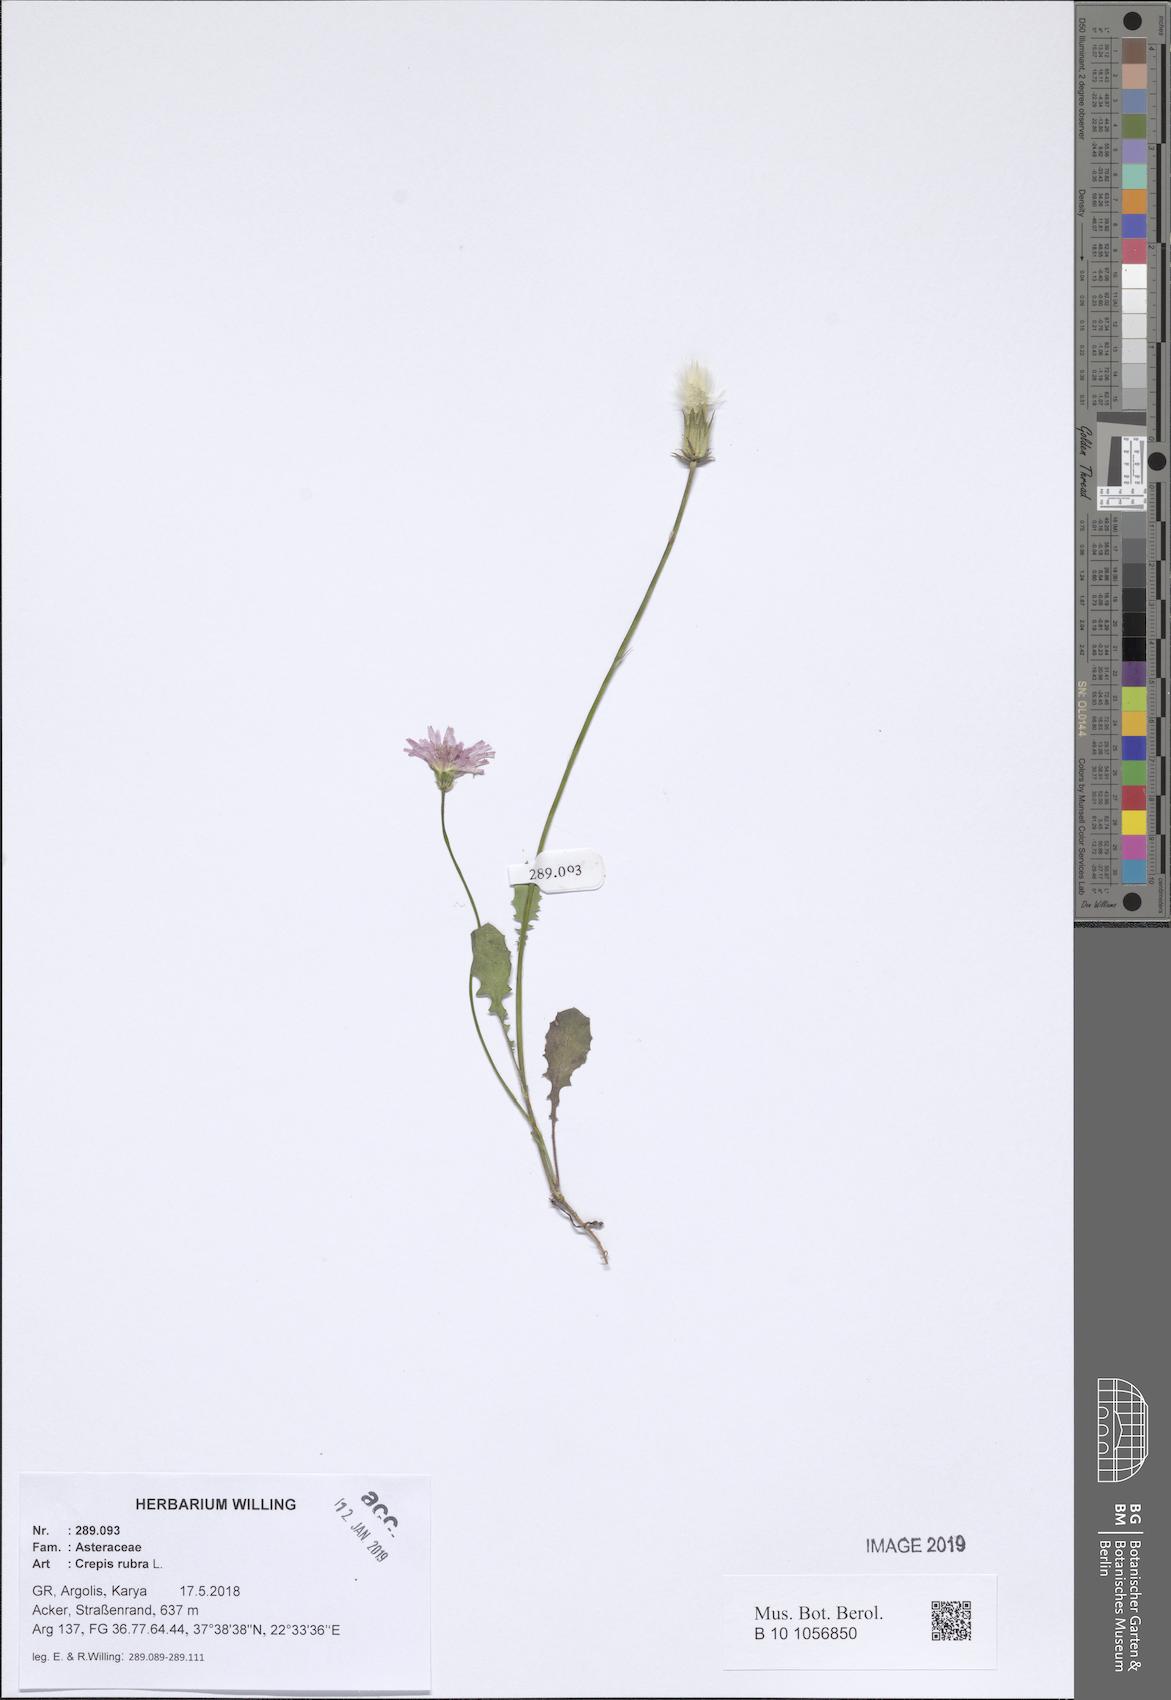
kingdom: Plantae
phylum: Tracheophyta
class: Magnoliopsida
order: Asterales
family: Asteraceae
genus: Crepis
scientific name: Crepis rubra
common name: Pink hawk's-beard
